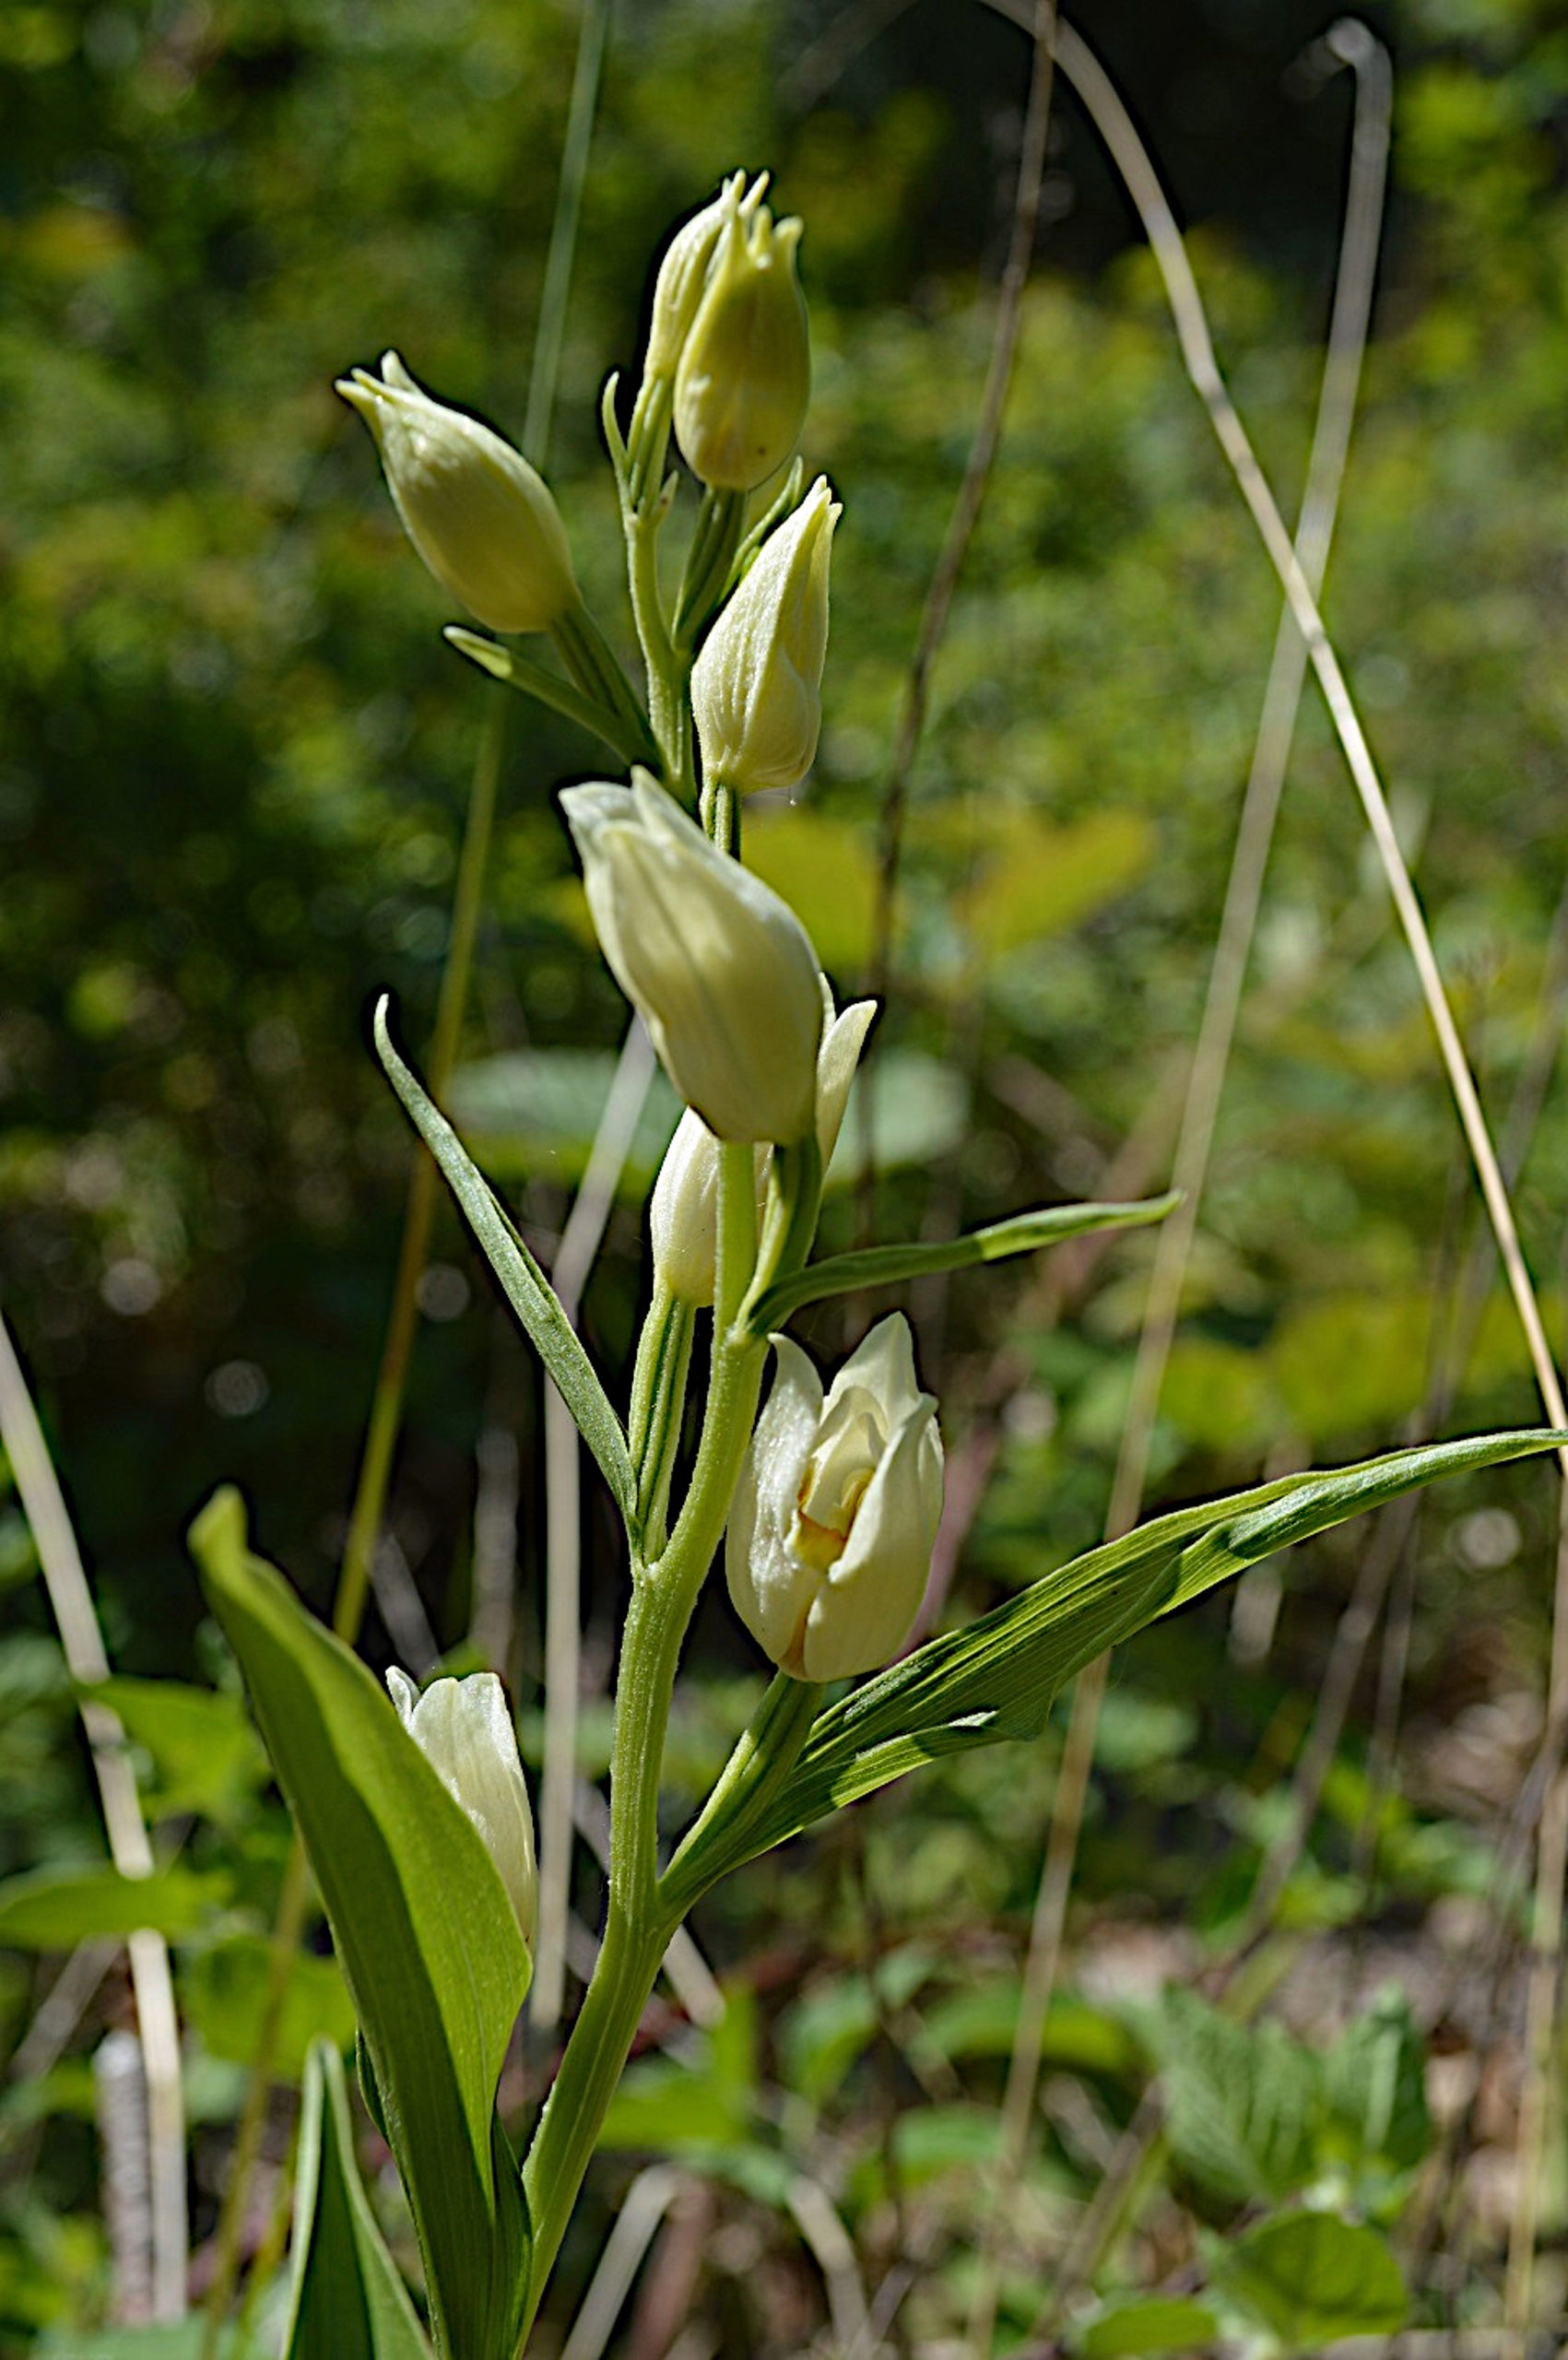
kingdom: Plantae
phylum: Tracheophyta
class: Liliopsida
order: Asparagales
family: Orchidaceae
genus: Cephalanthera
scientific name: Cephalanthera damasonium
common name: Hvidgul skovlilje
